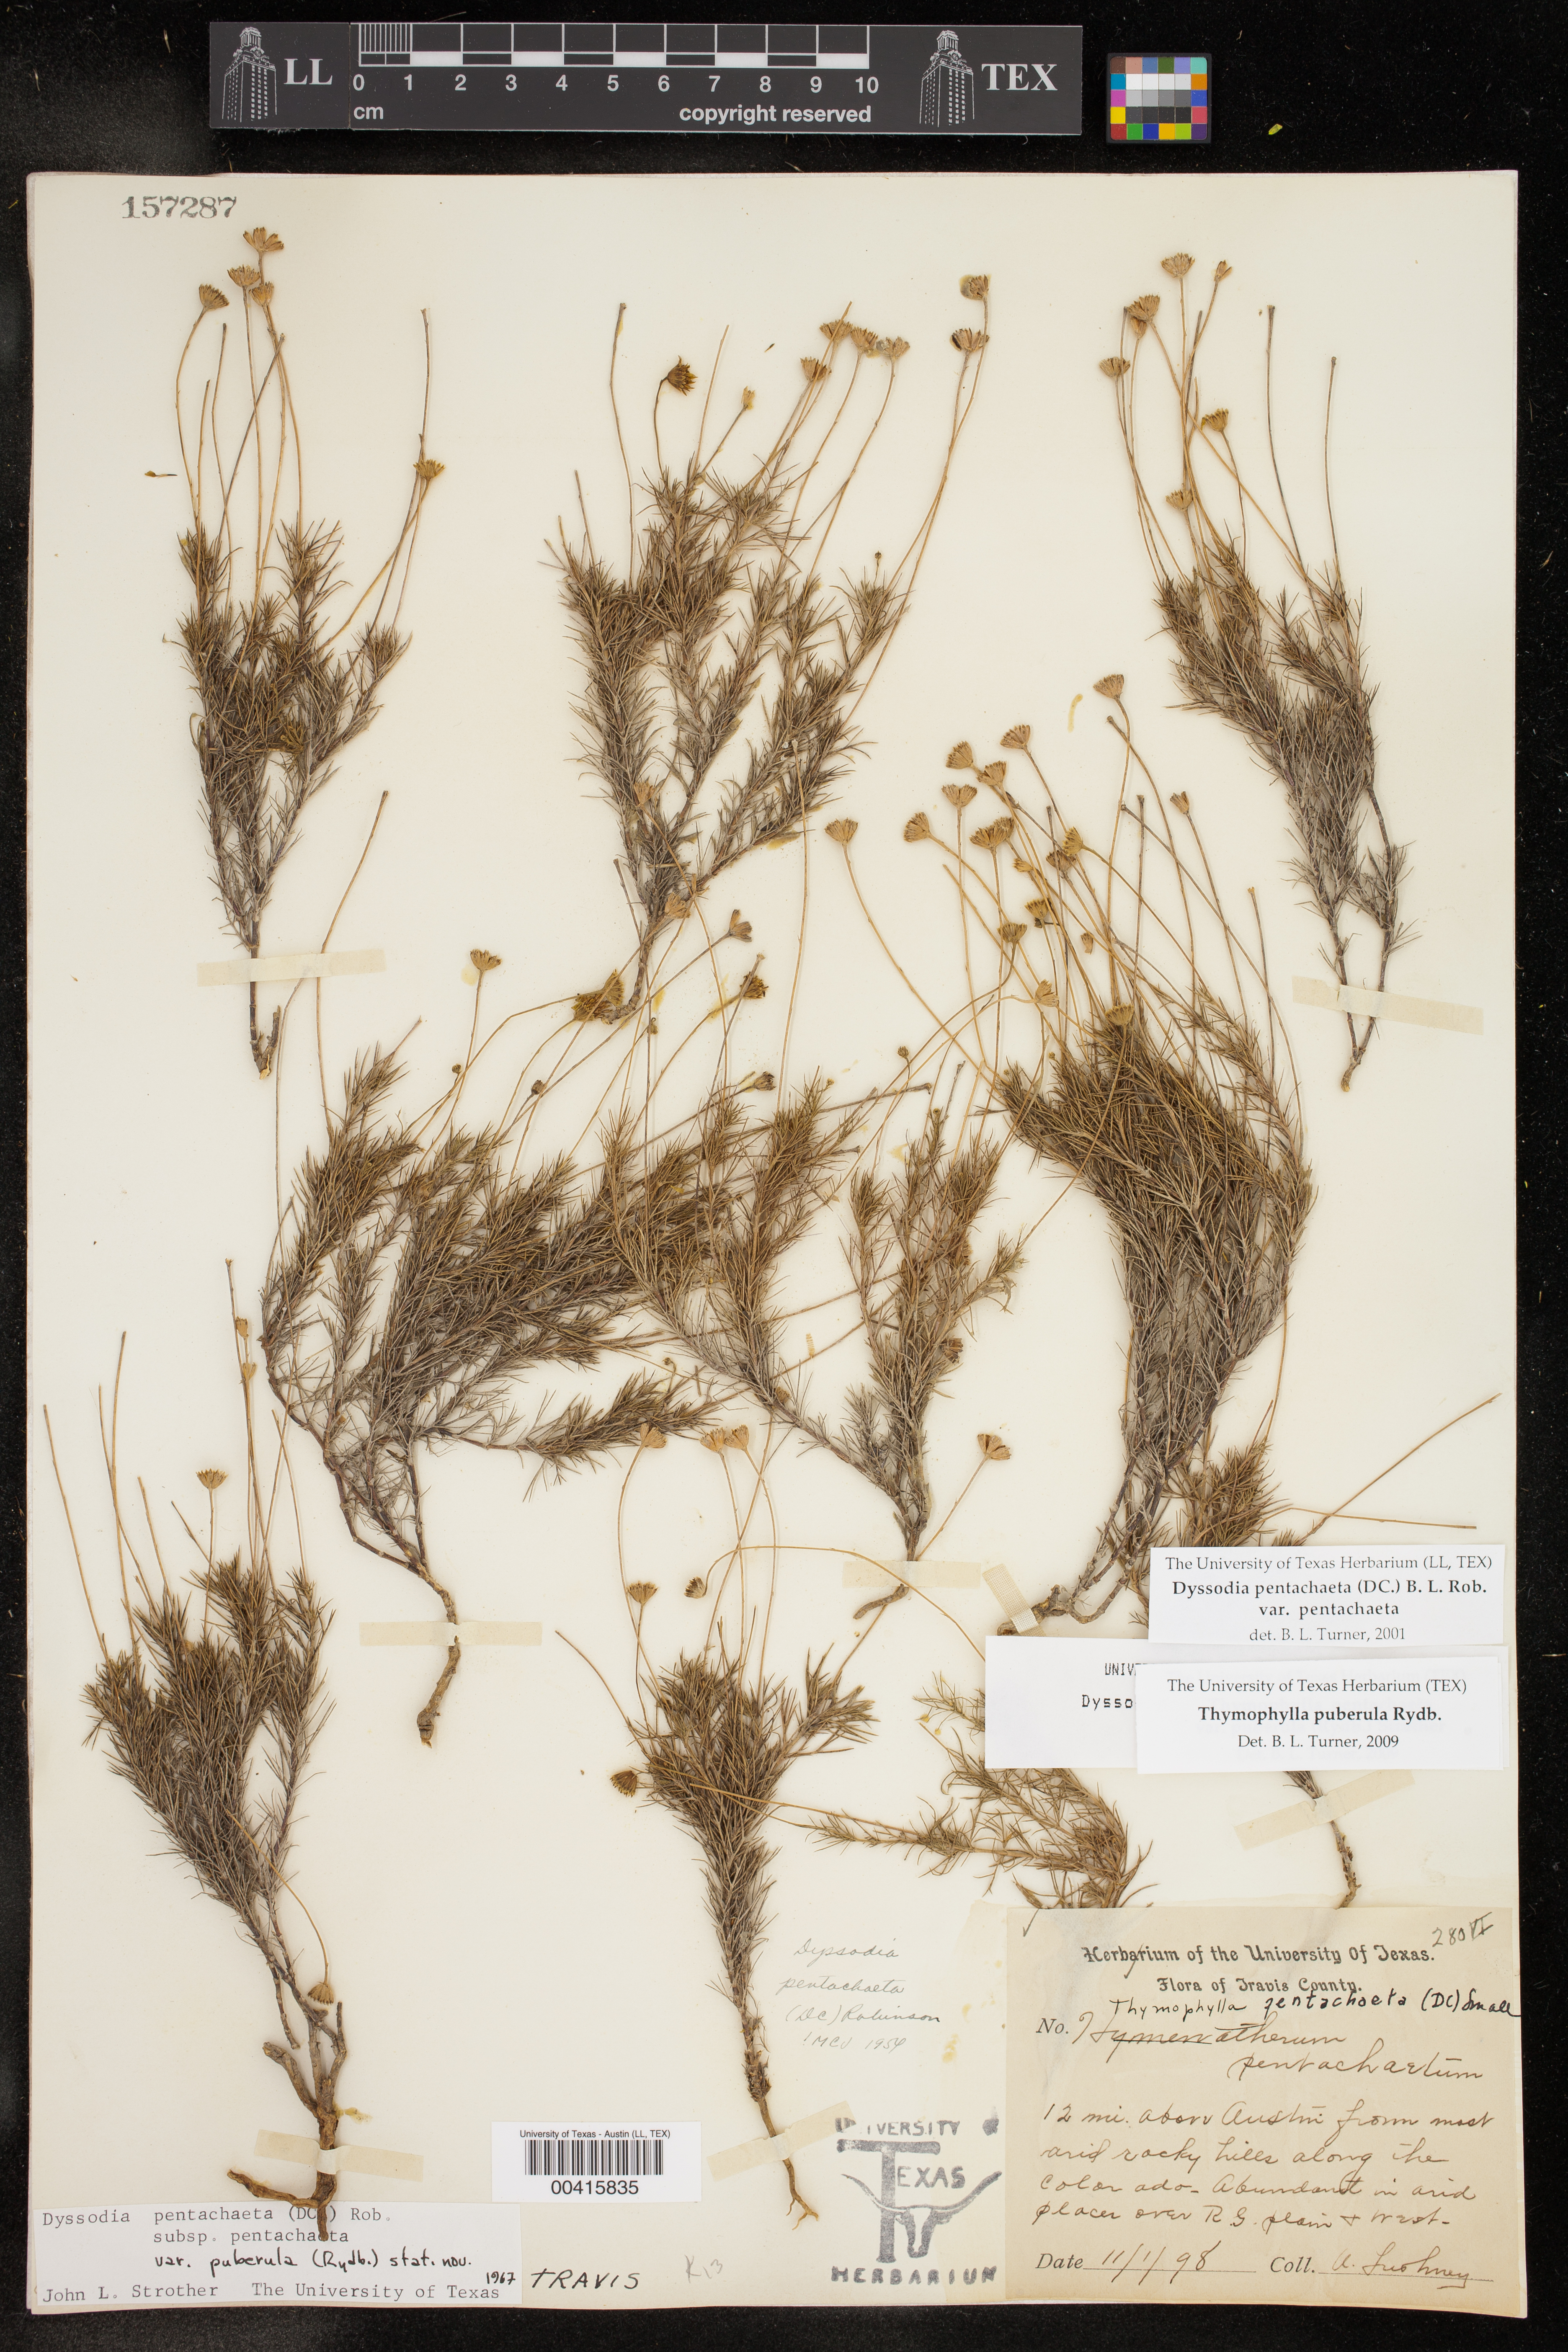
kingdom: Plantae
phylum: Tracheophyta
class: Magnoliopsida
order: Asterales
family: Asteraceae
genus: Thymophylla
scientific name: Thymophylla pentachaeta
